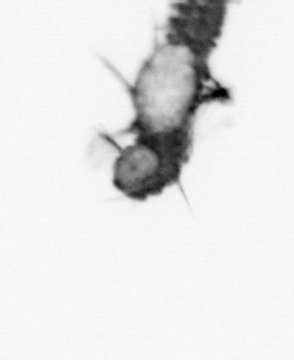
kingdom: Animalia
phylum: Annelida
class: Polychaeta
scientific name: Polychaeta
